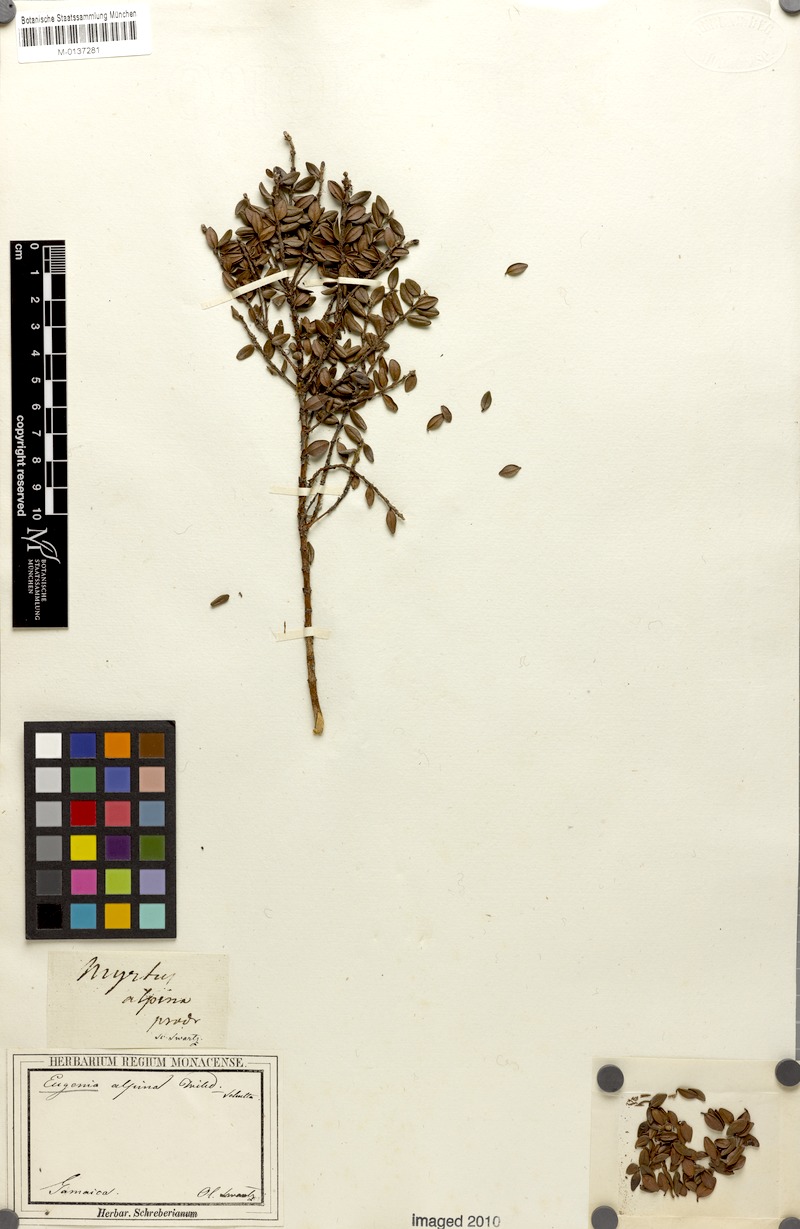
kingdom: Plantae
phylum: Tracheophyta
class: Magnoliopsida
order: Myrtales
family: Myrtaceae
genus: Eugenia
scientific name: Eugenia alpina
